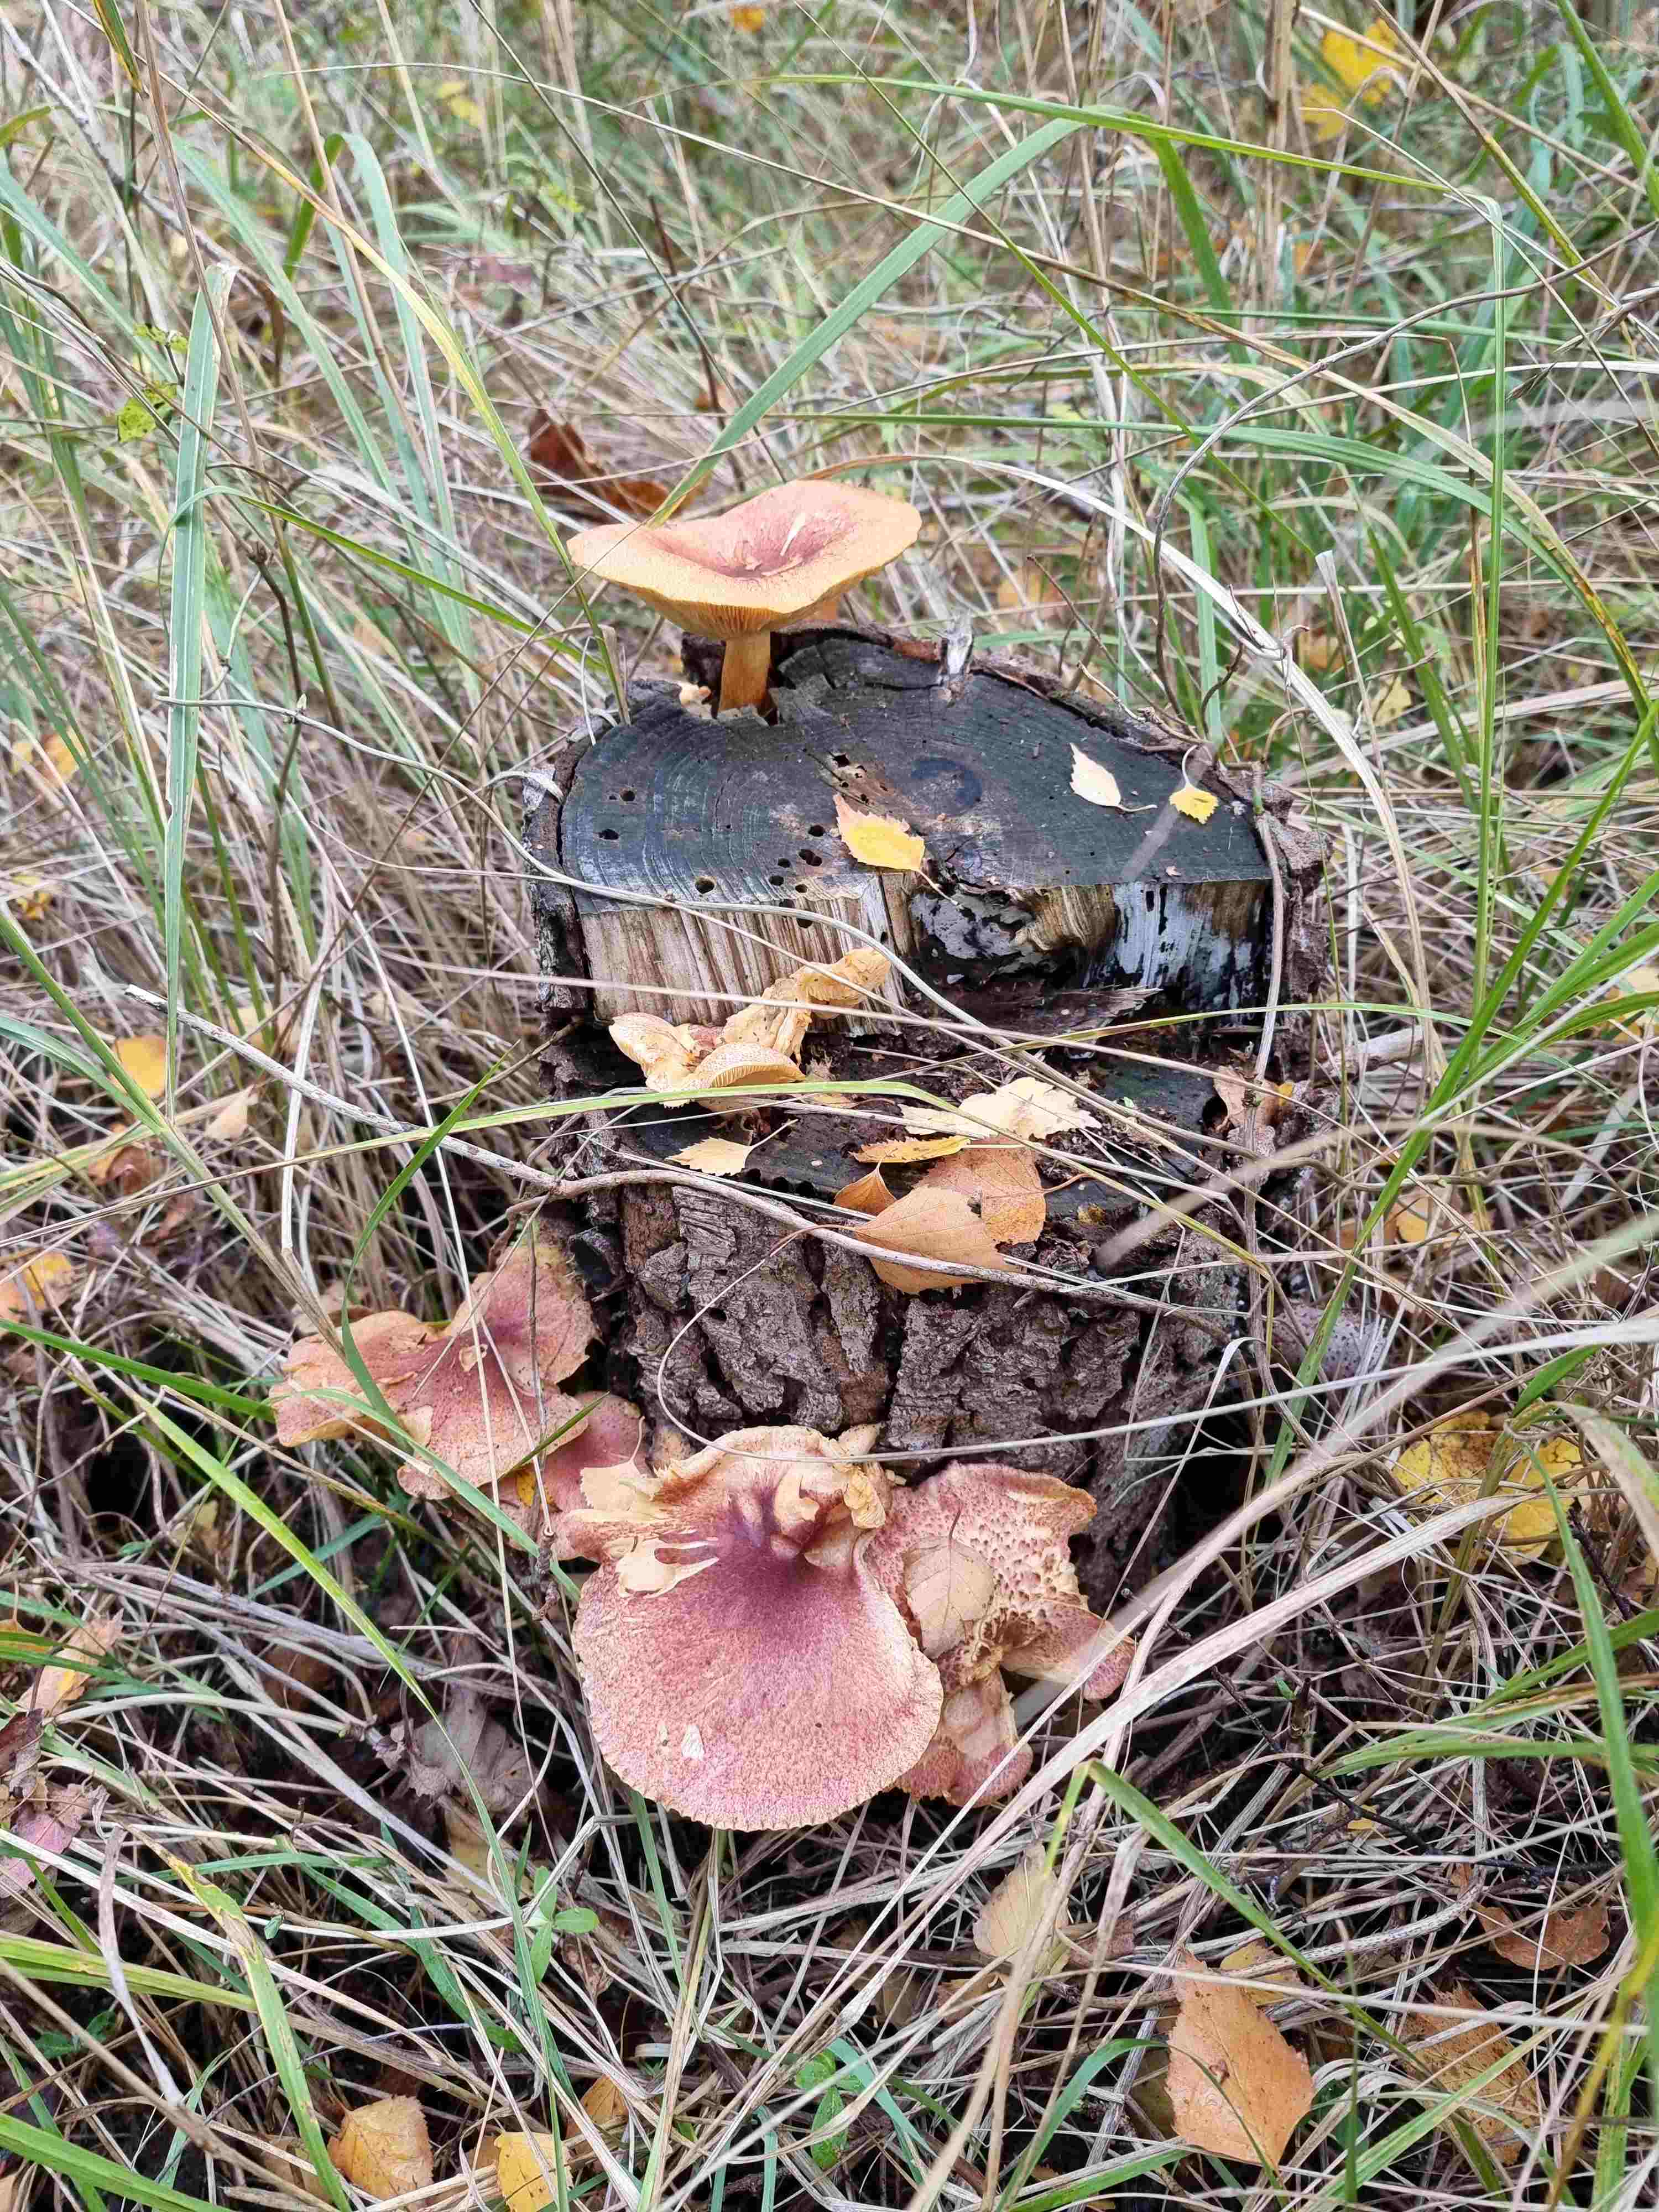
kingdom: Fungi
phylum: Basidiomycota
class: Agaricomycetes
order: Agaricales
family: Tricholomataceae
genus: Tricholomopsis
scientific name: Tricholomopsis rutilans
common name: purpur-væbnerhat
